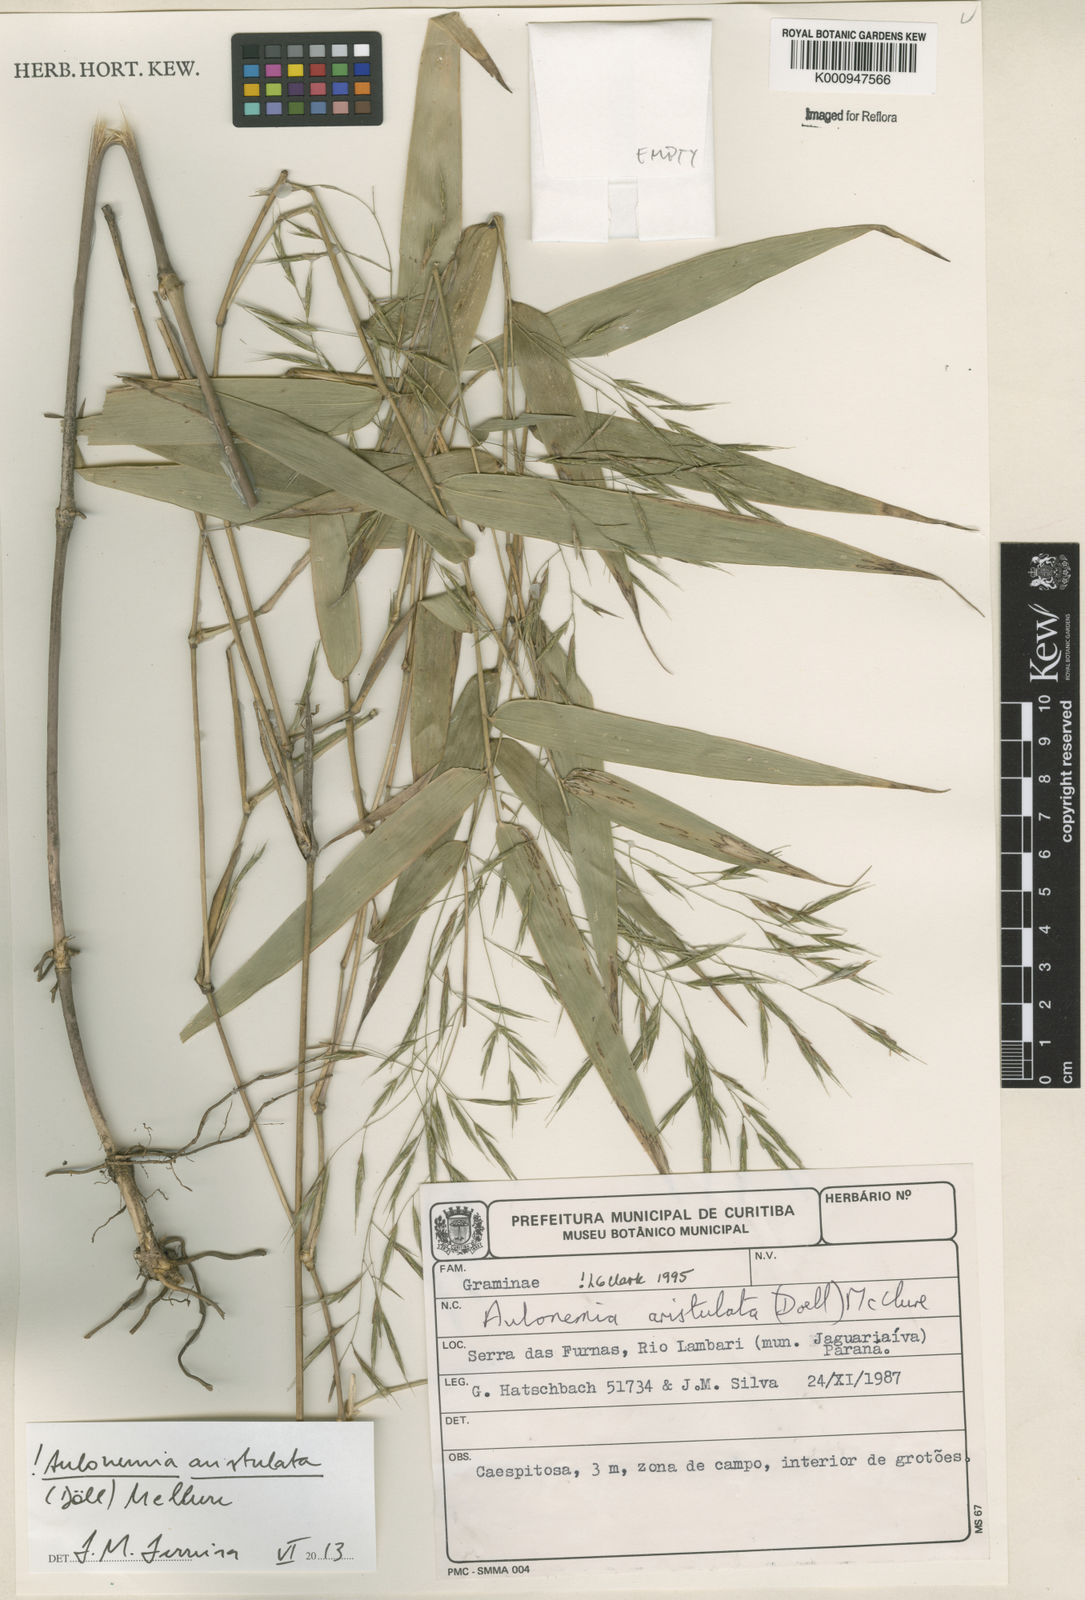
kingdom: Plantae
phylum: Tracheophyta
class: Liliopsida
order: Poales
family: Poaceae
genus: Aulonemia
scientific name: Aulonemia
